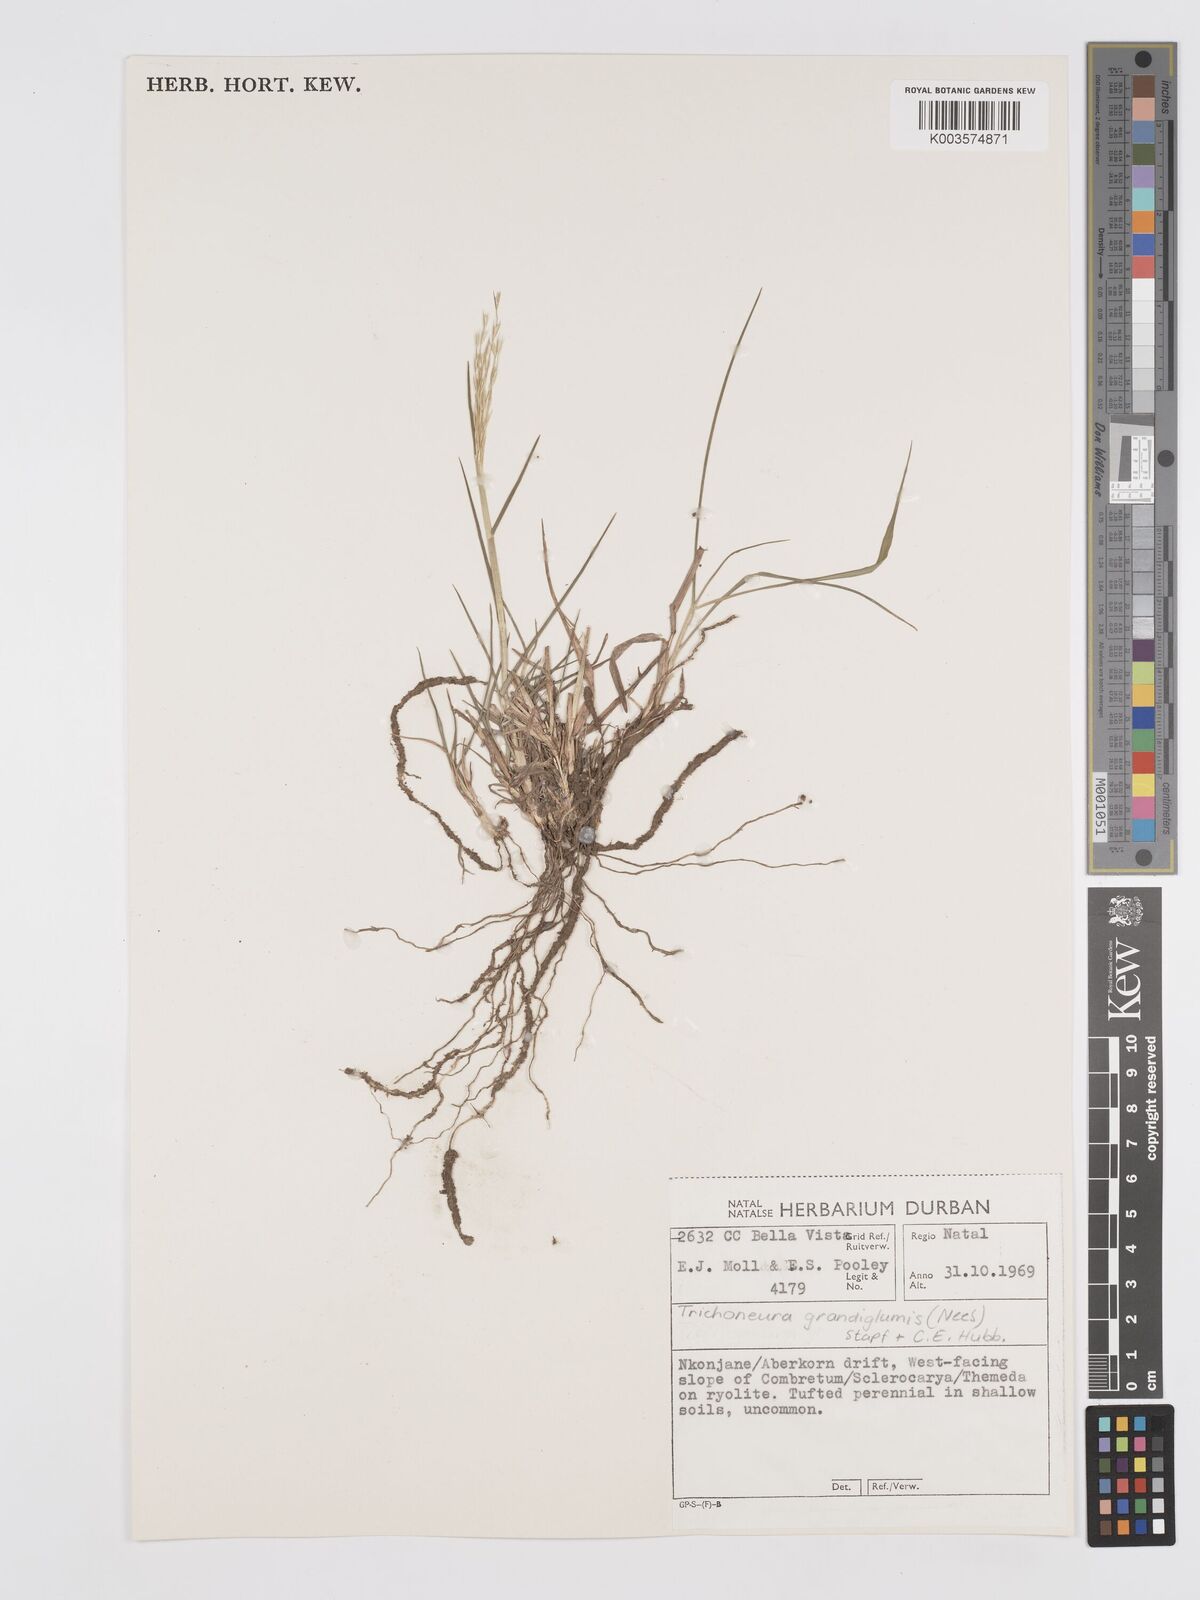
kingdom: Plantae
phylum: Tracheophyta
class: Liliopsida
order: Poales
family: Poaceae
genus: Trichoneura
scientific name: Trichoneura grandiglumis
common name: Rolling grass
